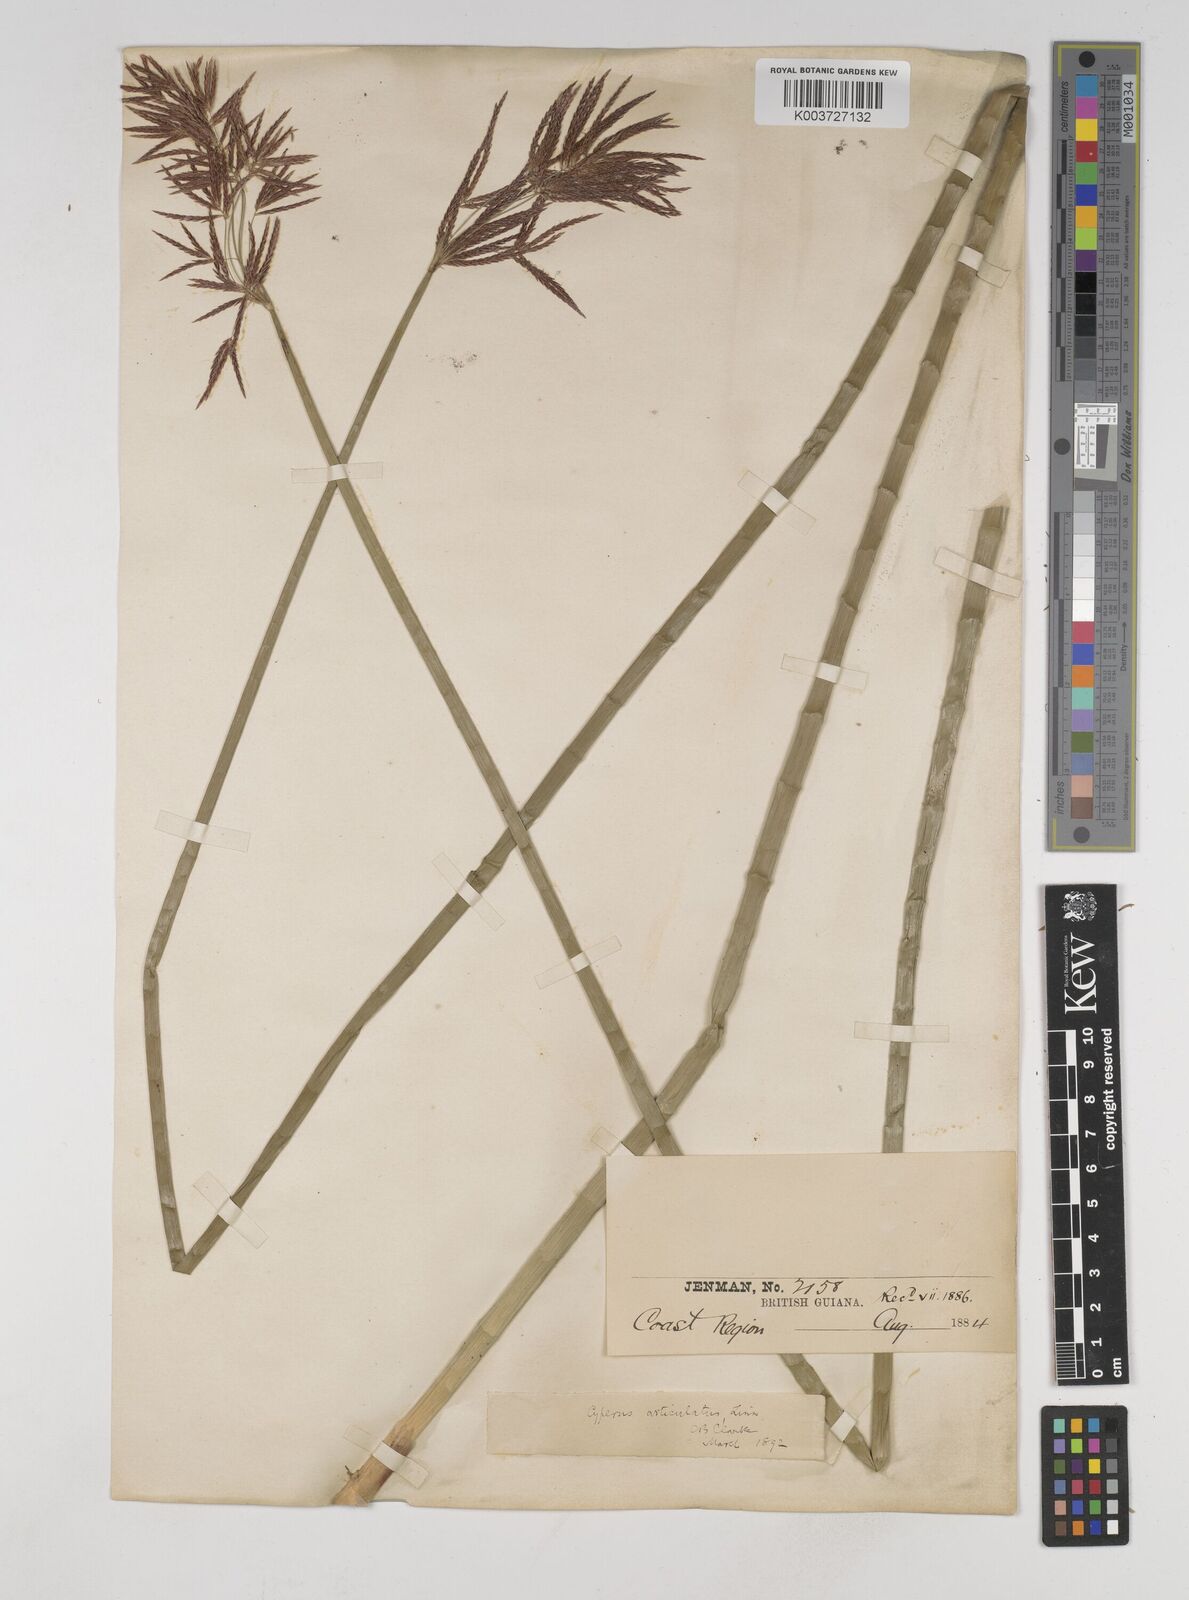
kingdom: Plantae
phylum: Tracheophyta
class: Liliopsida
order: Poales
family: Cyperaceae
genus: Cyperus
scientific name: Cyperus articulatus
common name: Jointed flatsedge
